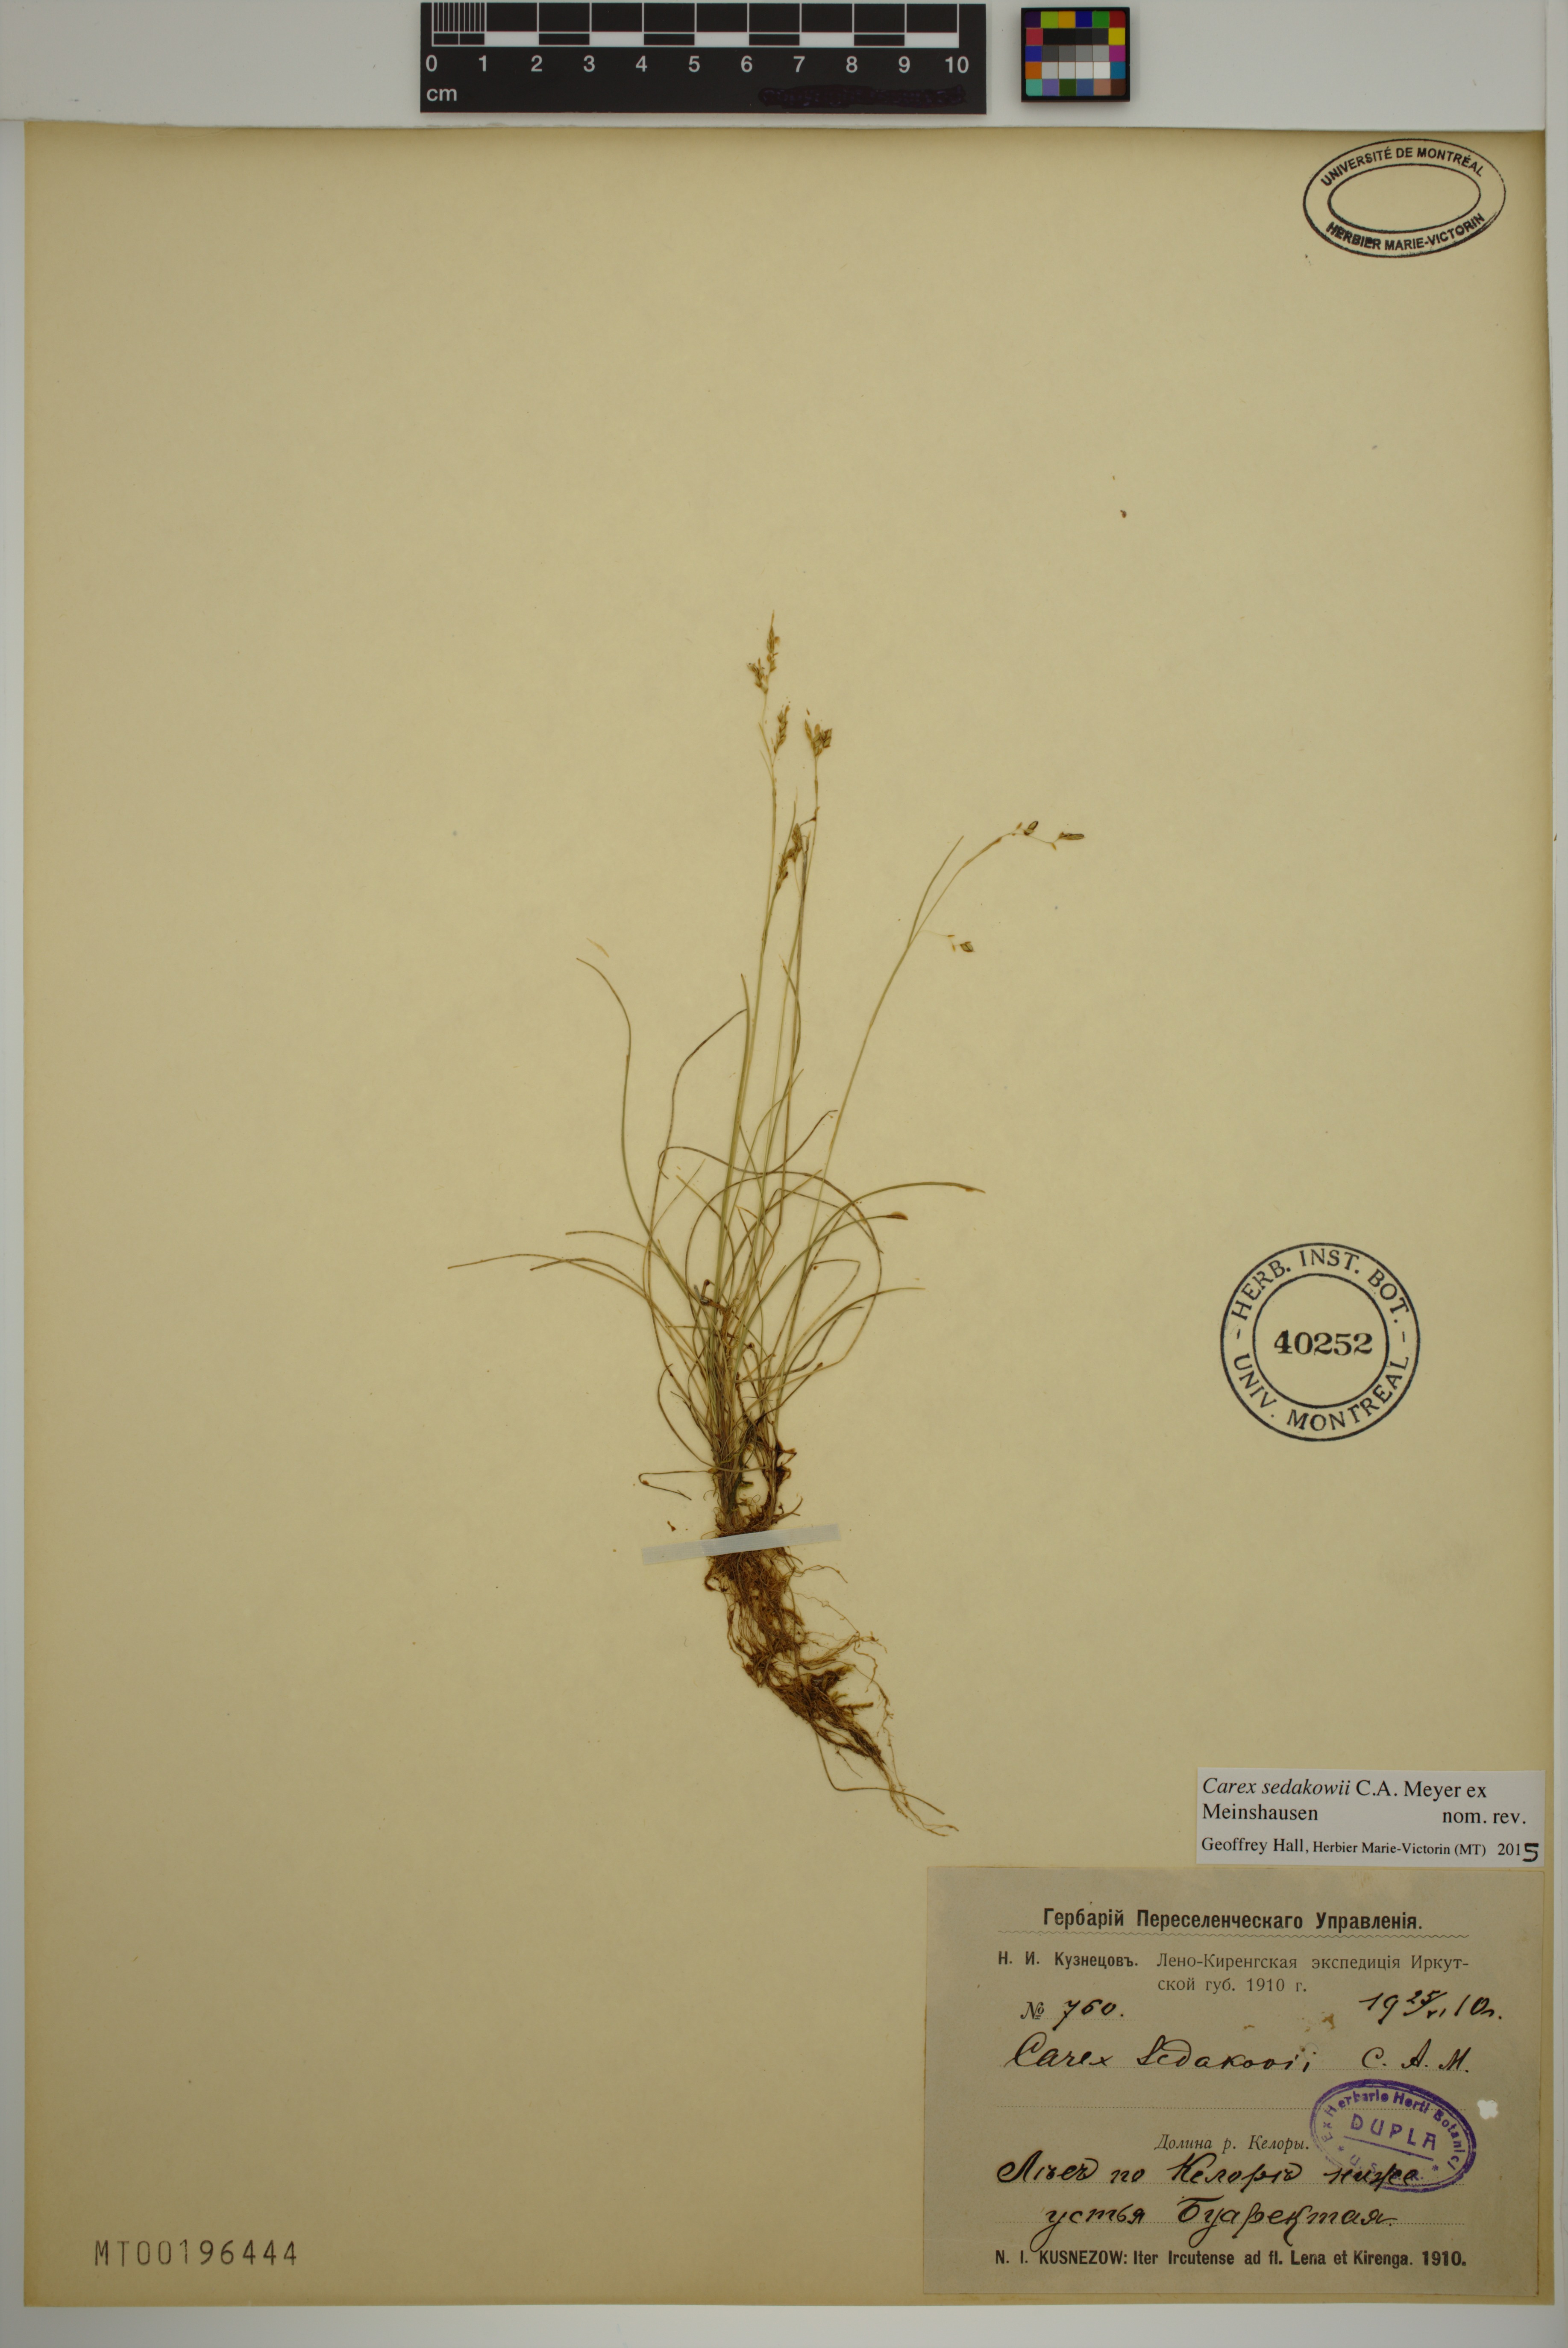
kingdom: Plantae
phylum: Tracheophyta
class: Liliopsida
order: Poales
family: Cyperaceae
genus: Carex
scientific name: Carex sedakowii
